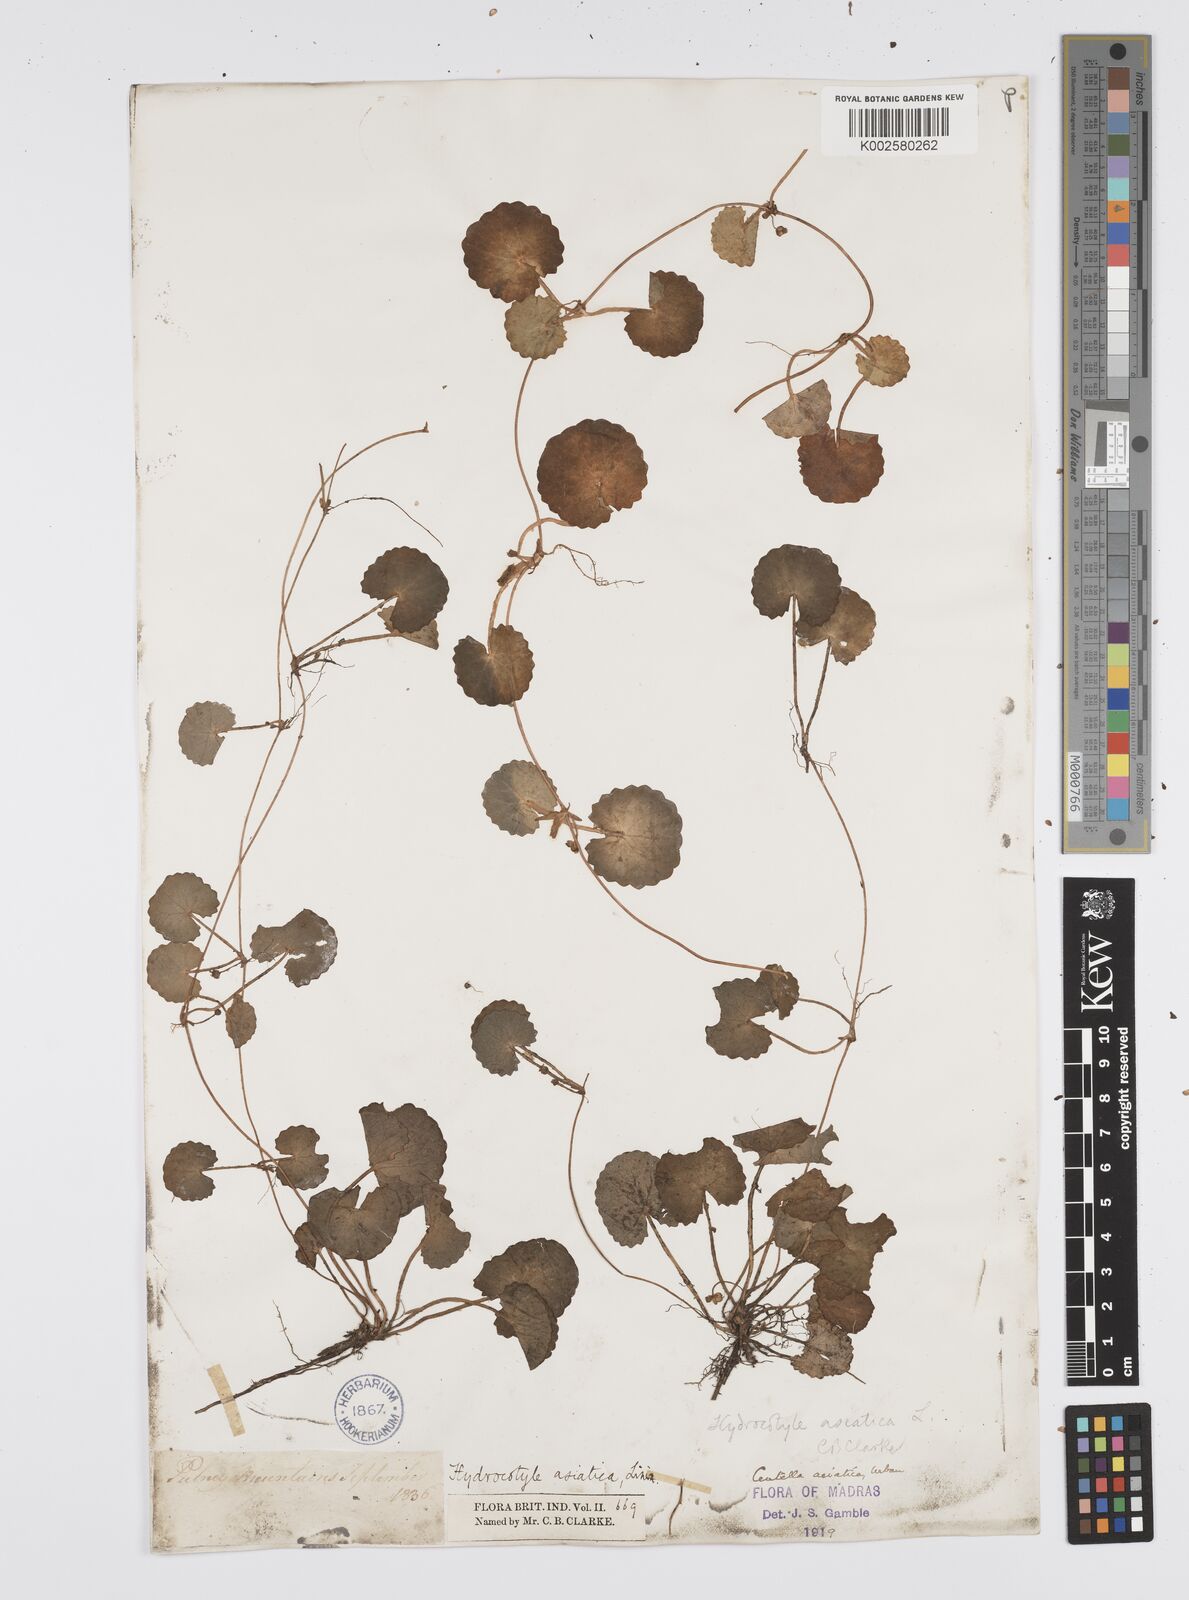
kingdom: Plantae
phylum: Tracheophyta
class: Magnoliopsida
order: Apiales
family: Apiaceae
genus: Centella
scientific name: Centella asiatica
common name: Spadeleaf
